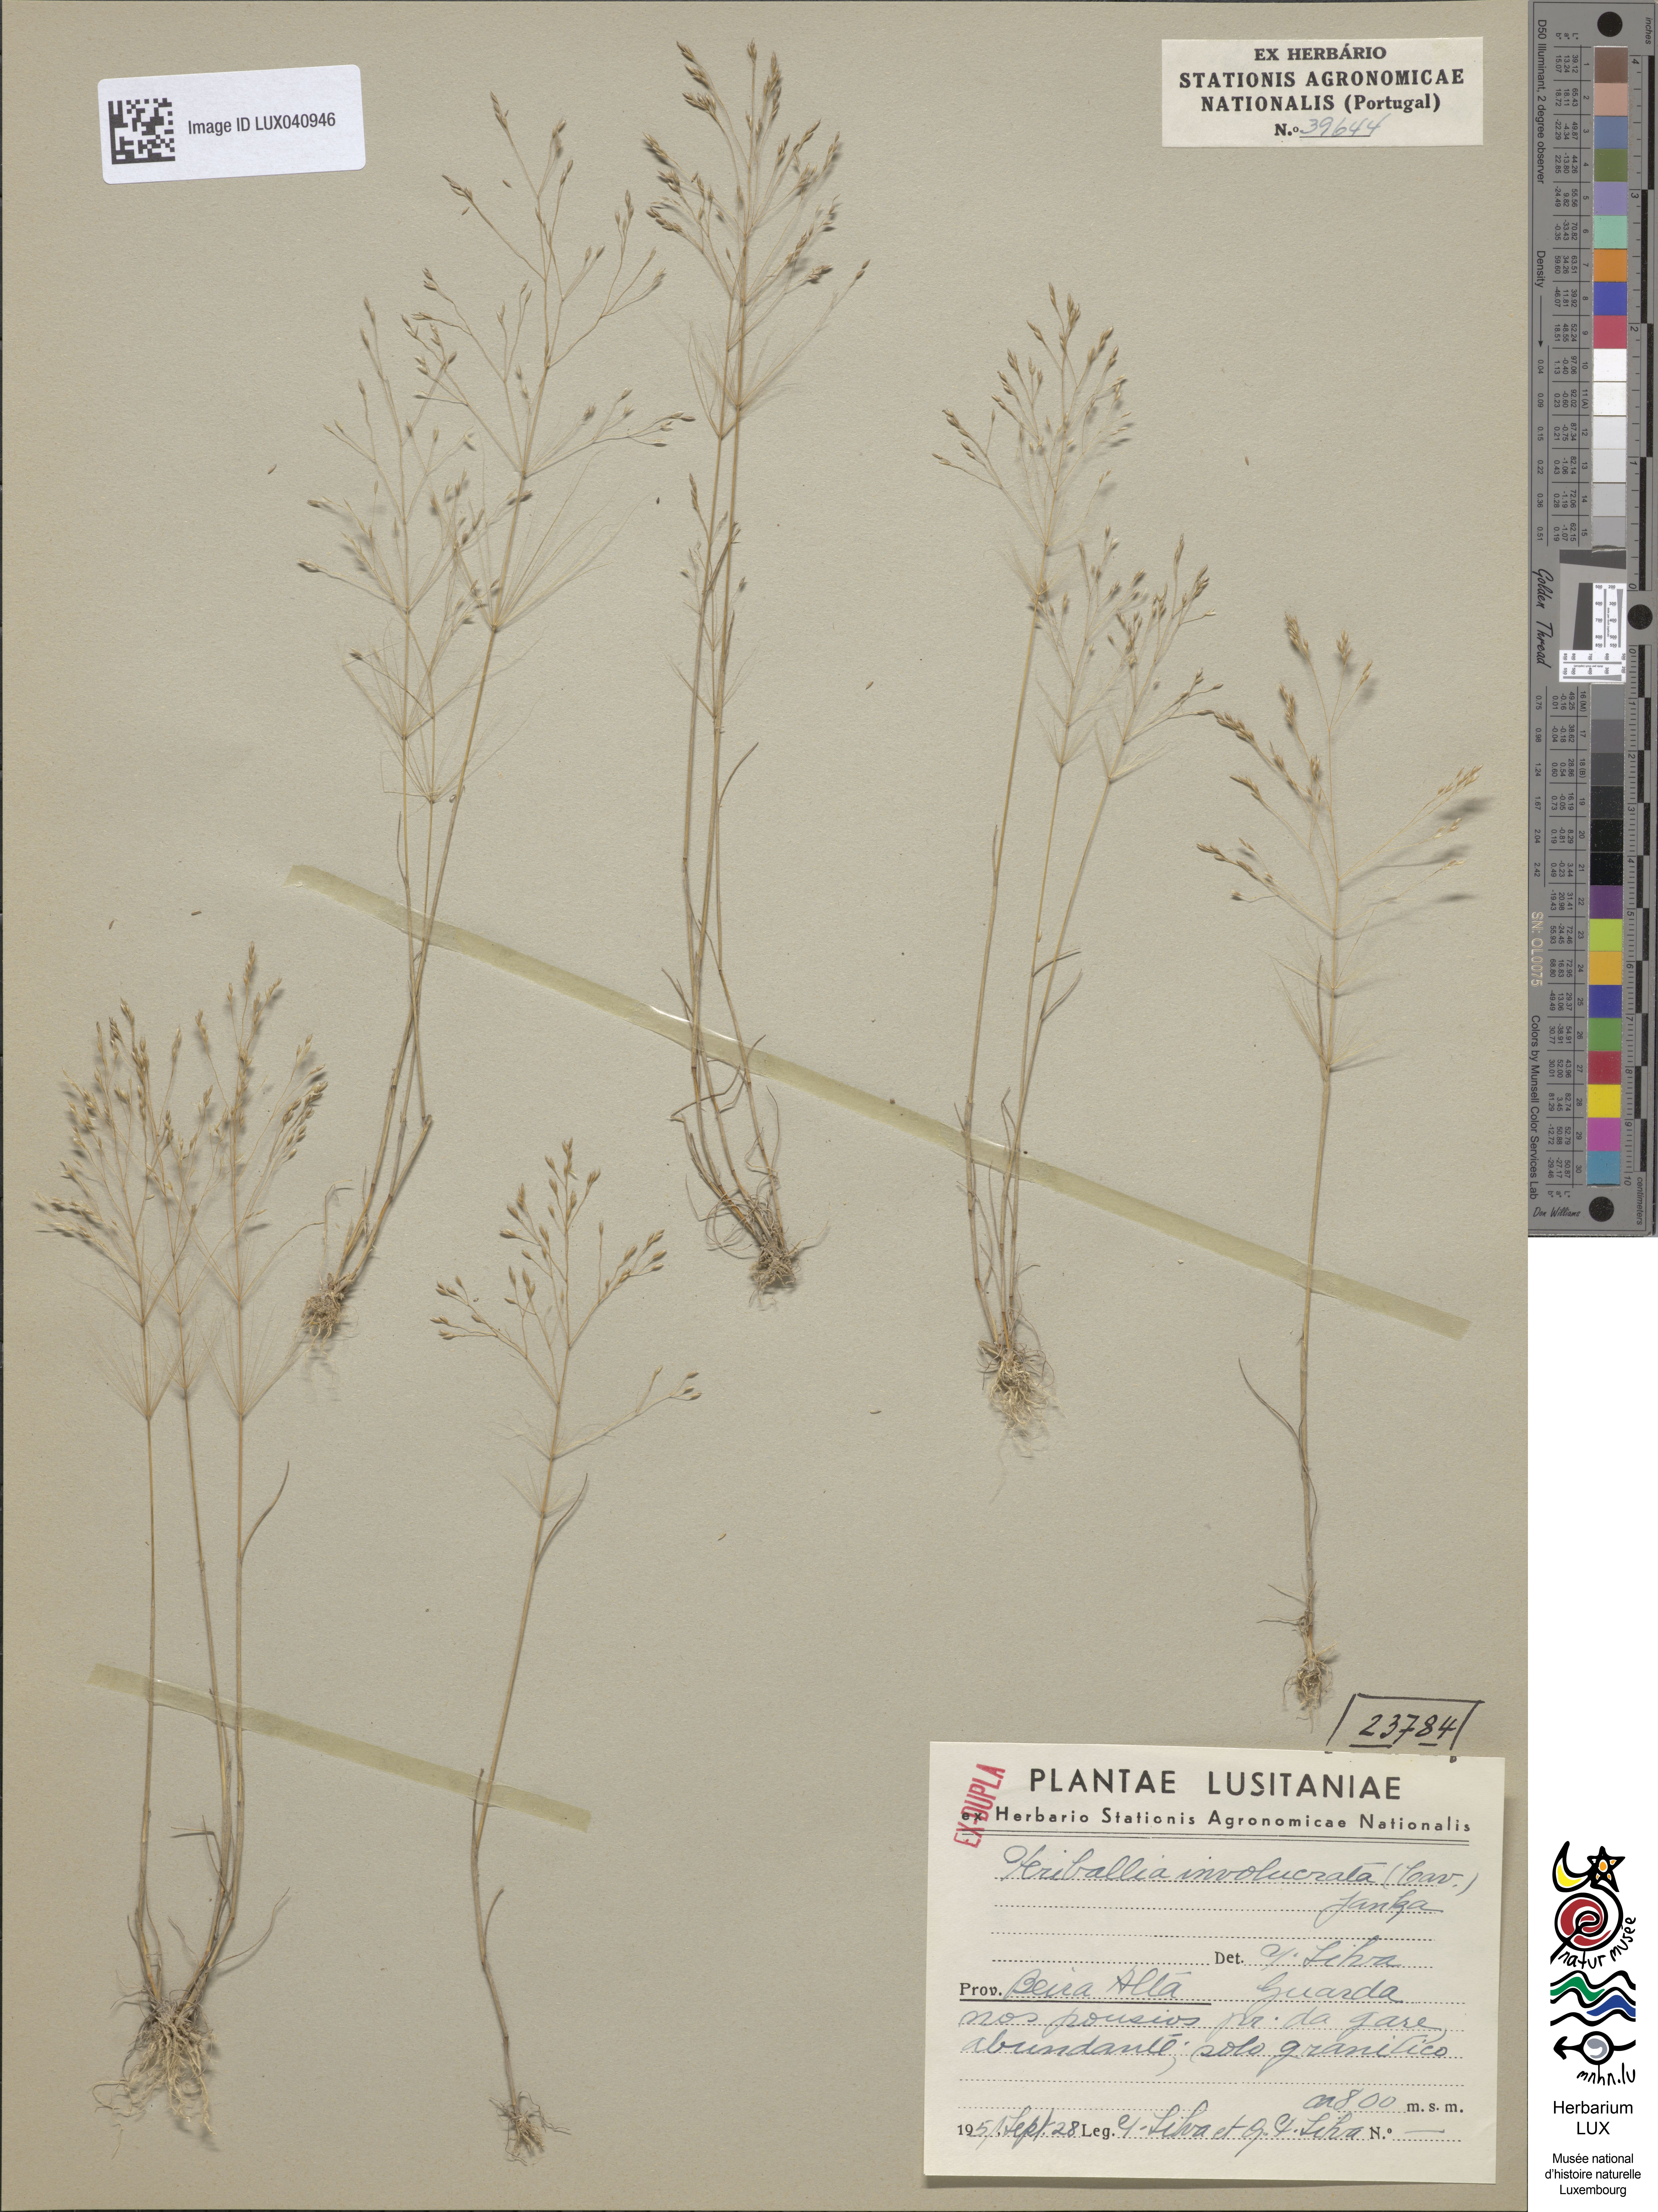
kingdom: Plantae
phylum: Tracheophyta
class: Liliopsida
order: Poales
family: Poaceae
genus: Periballia
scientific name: Periballia involucrata
